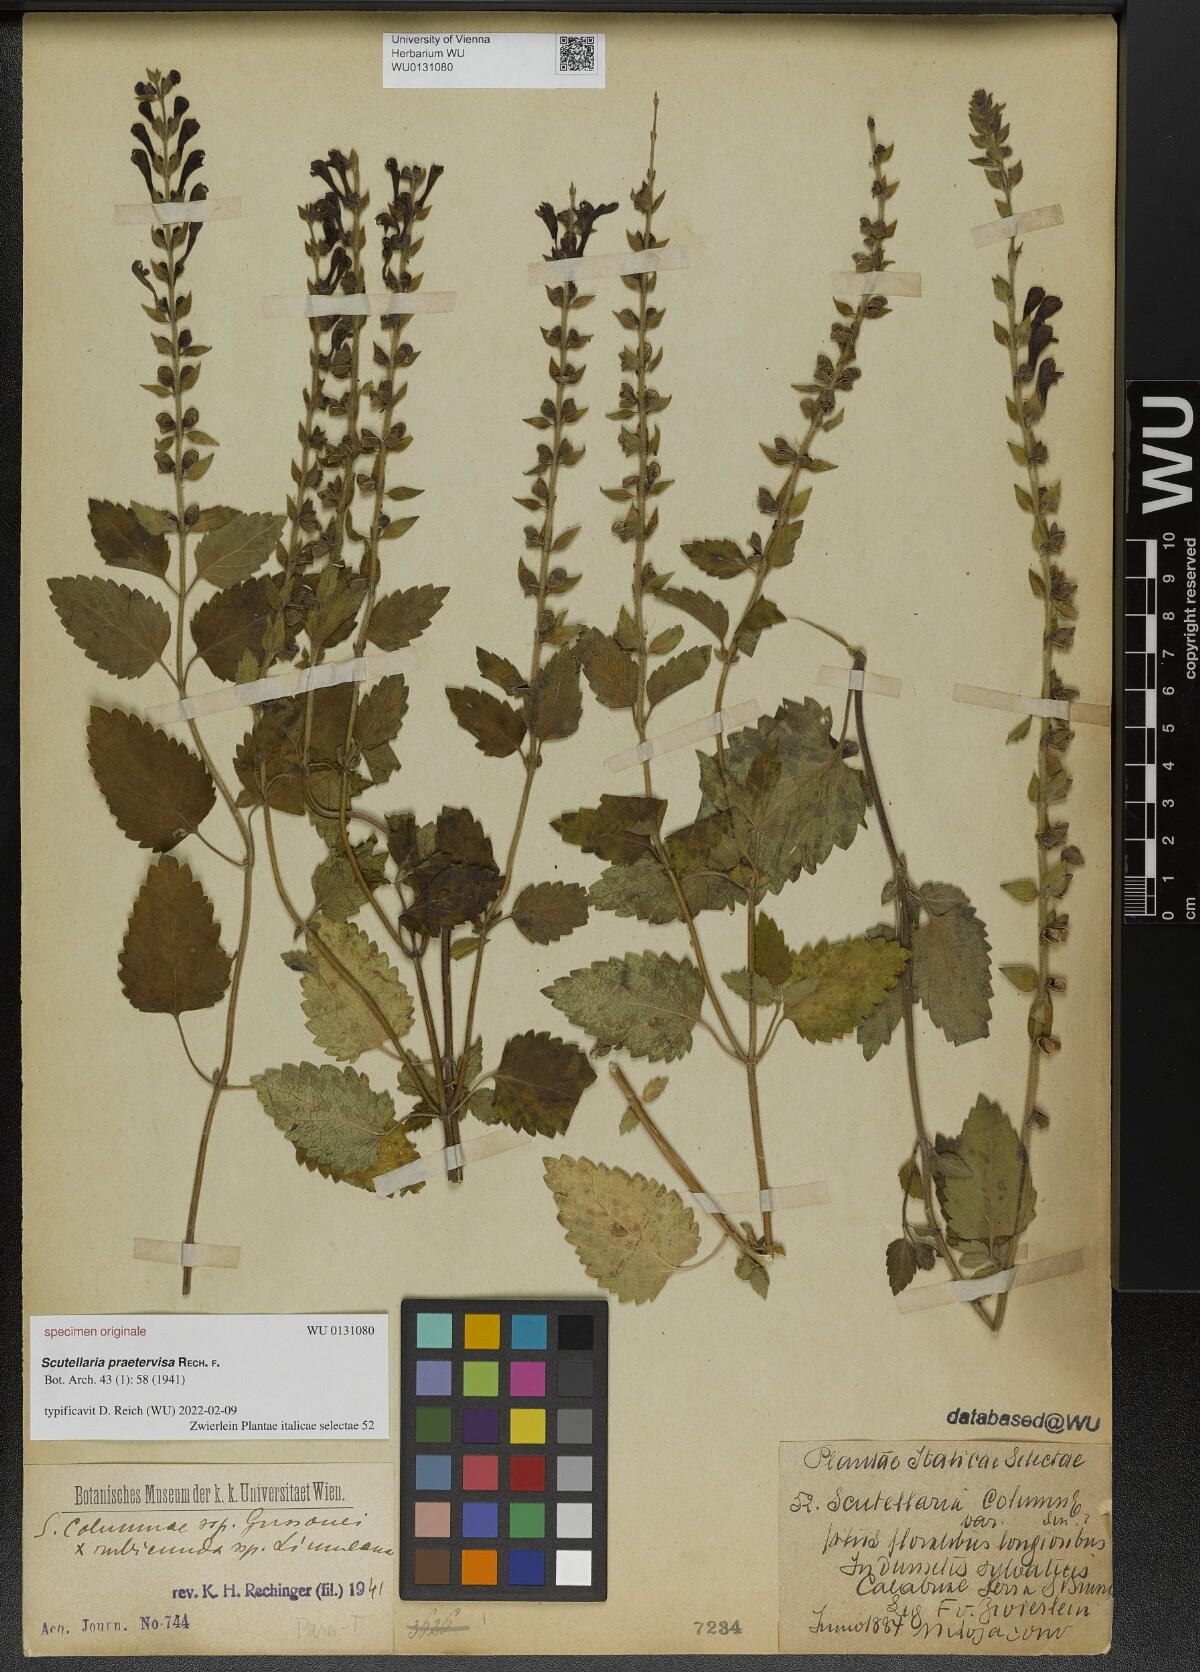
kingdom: Plantae
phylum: Tracheophyta
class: Magnoliopsida
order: Lamiales
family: Lamiaceae
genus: Scutellaria
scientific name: Scutellaria praetervisa
